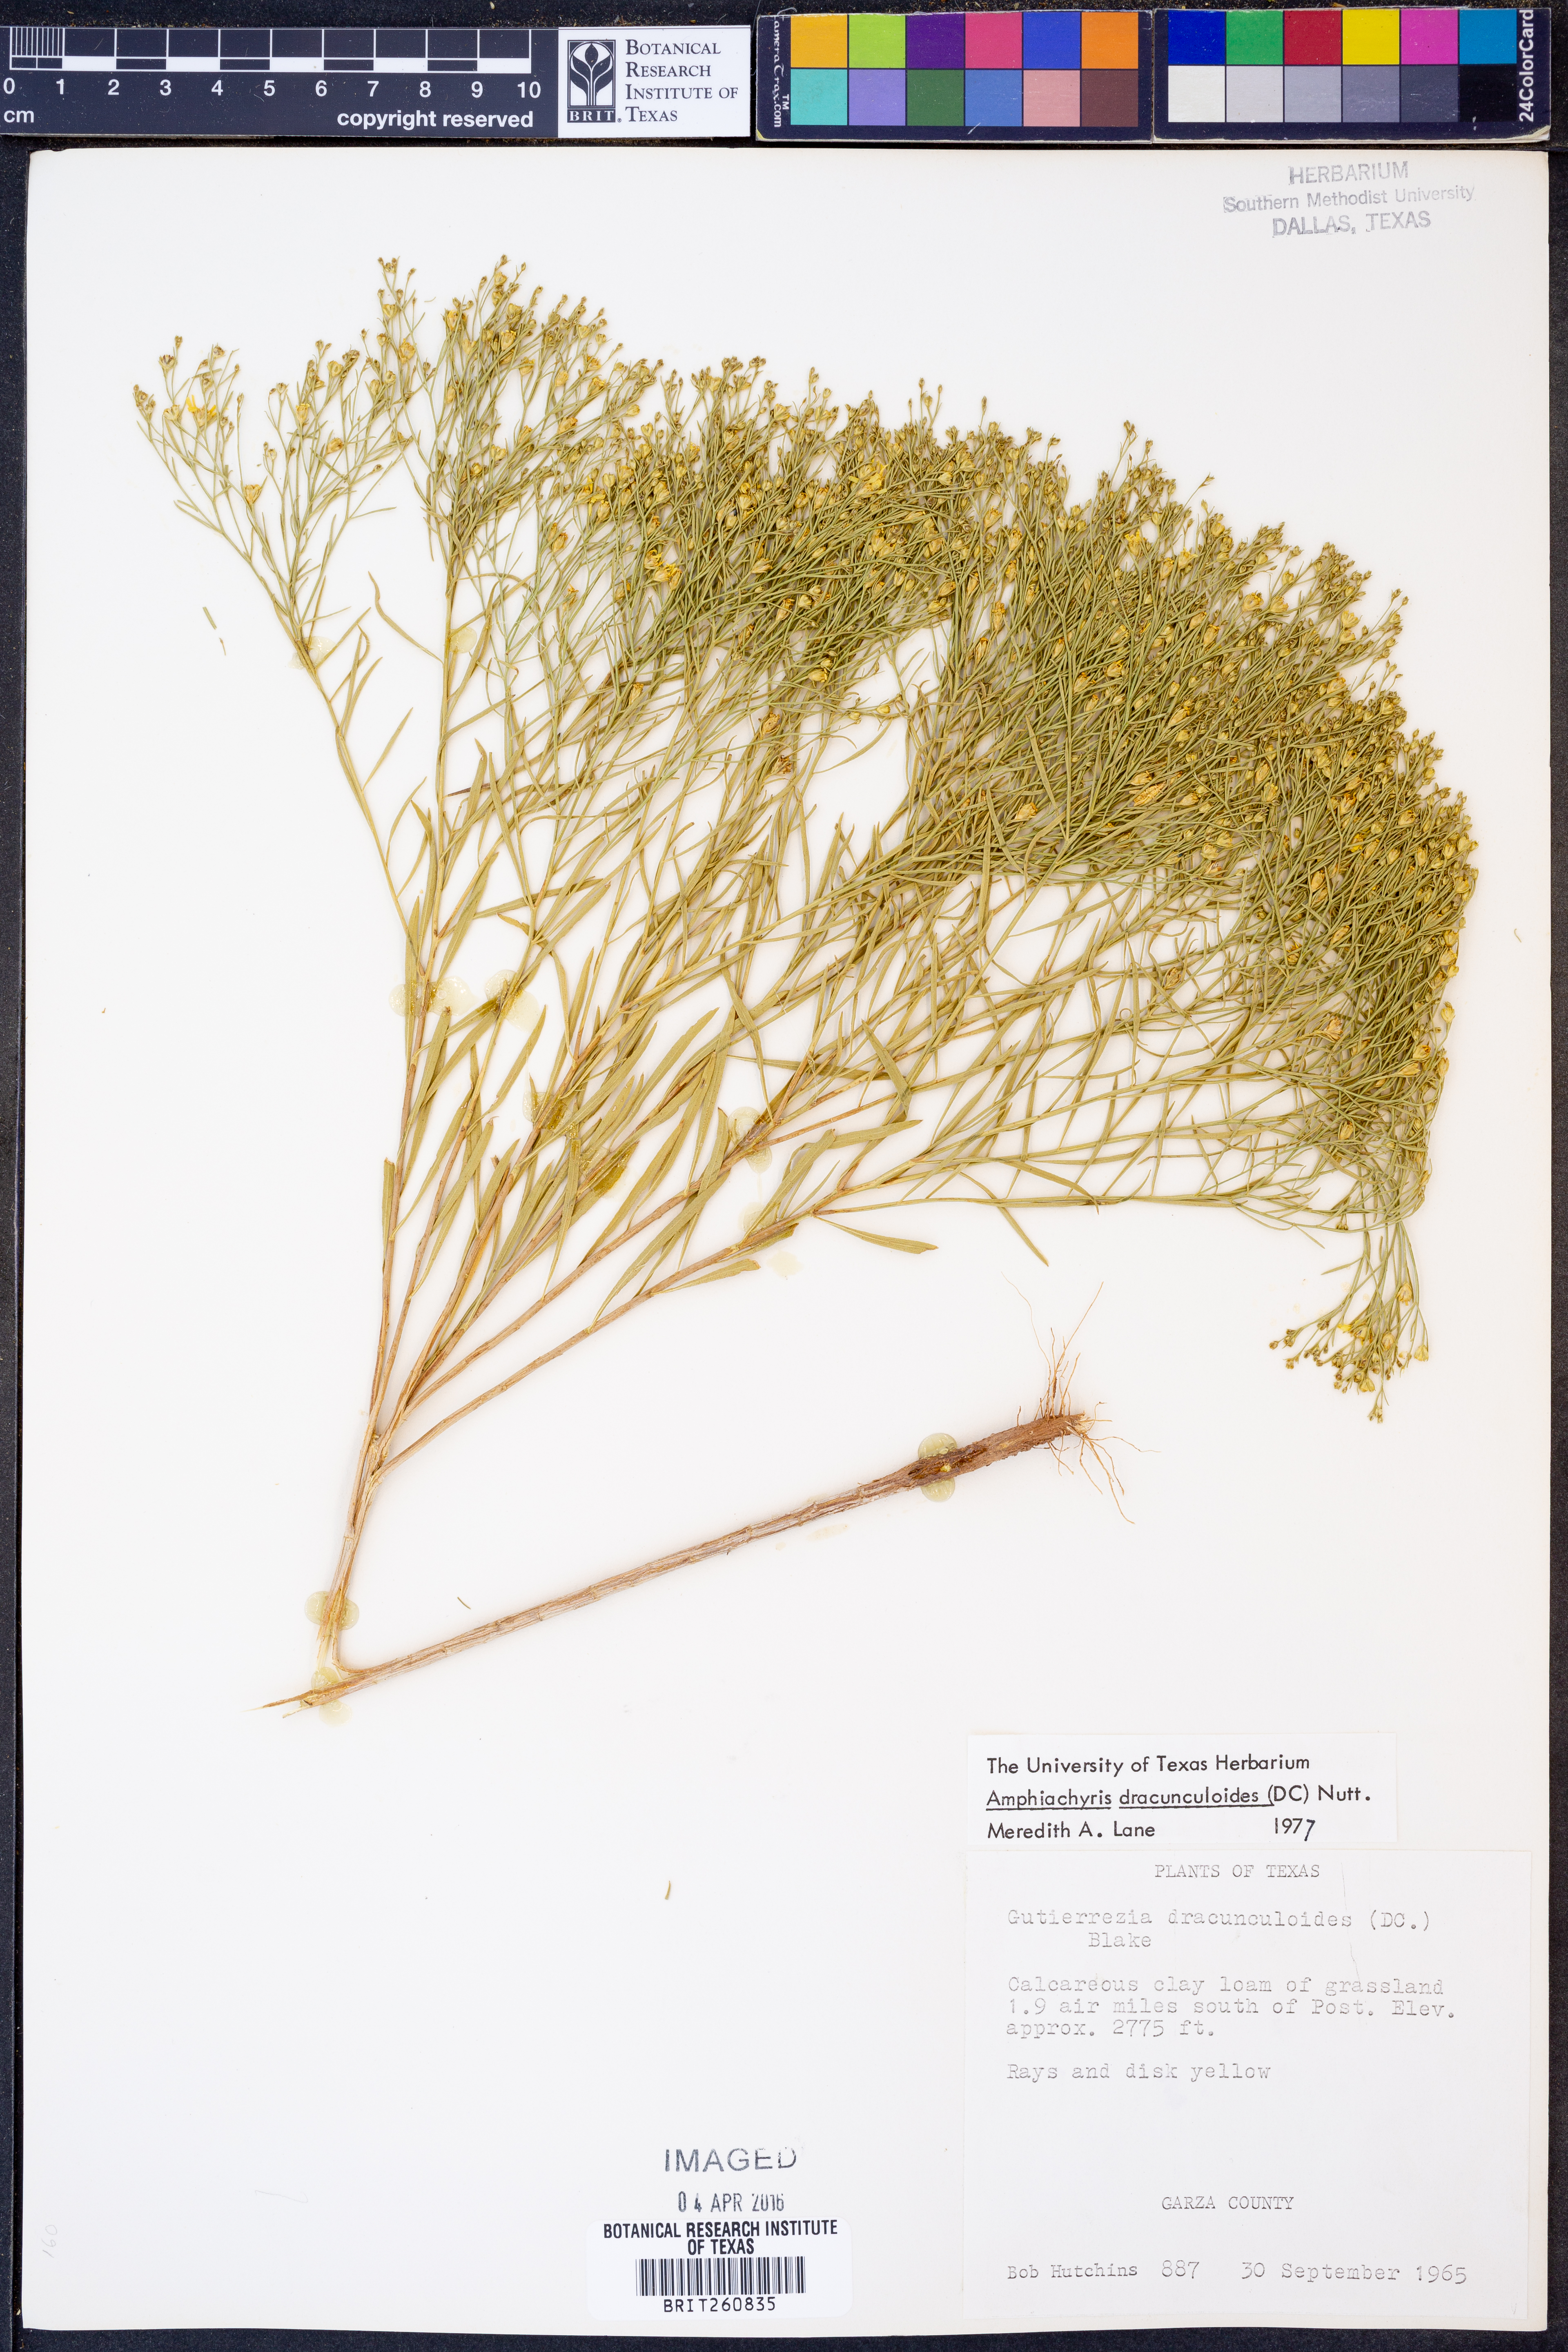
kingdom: Plantae
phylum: Tracheophyta
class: Magnoliopsida
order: Asterales
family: Asteraceae
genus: Amphiachyris
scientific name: Amphiachyris dracunculoides
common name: Broomweed
